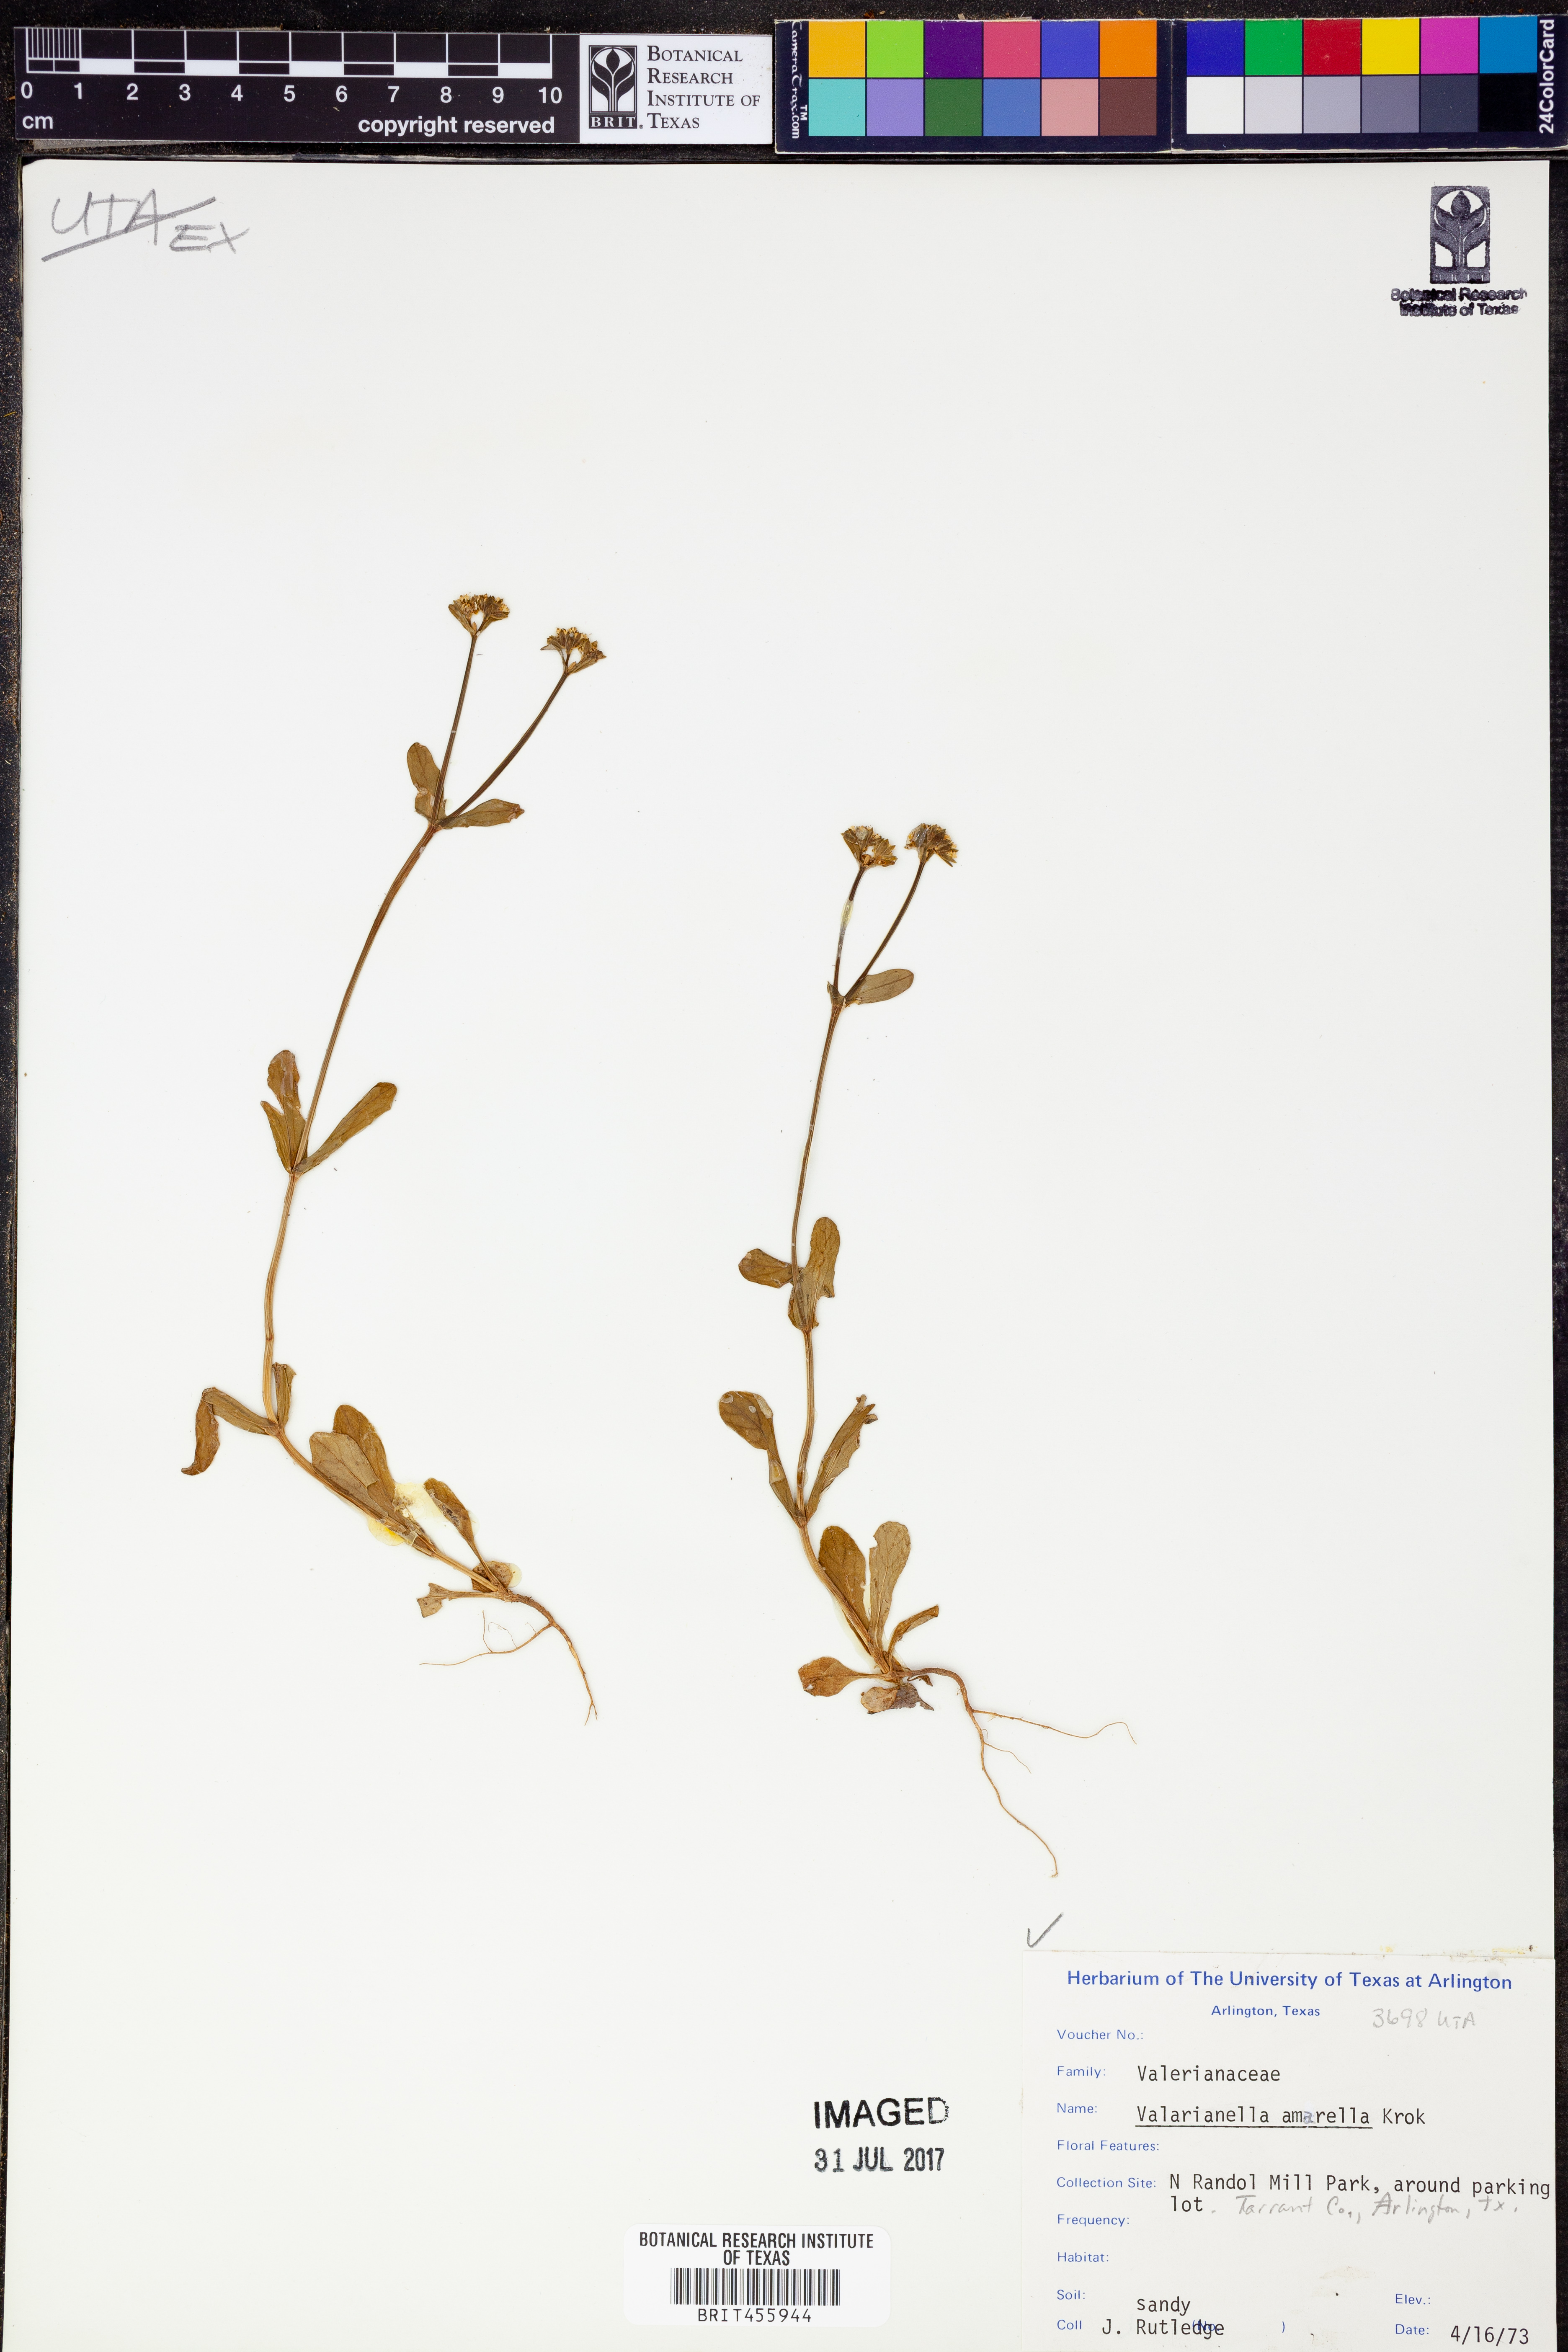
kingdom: Plantae
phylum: Tracheophyta
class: Magnoliopsida
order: Dipsacales
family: Caprifoliaceae
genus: Valerianella
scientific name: Valerianella amarella
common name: Hariy cornsalad
